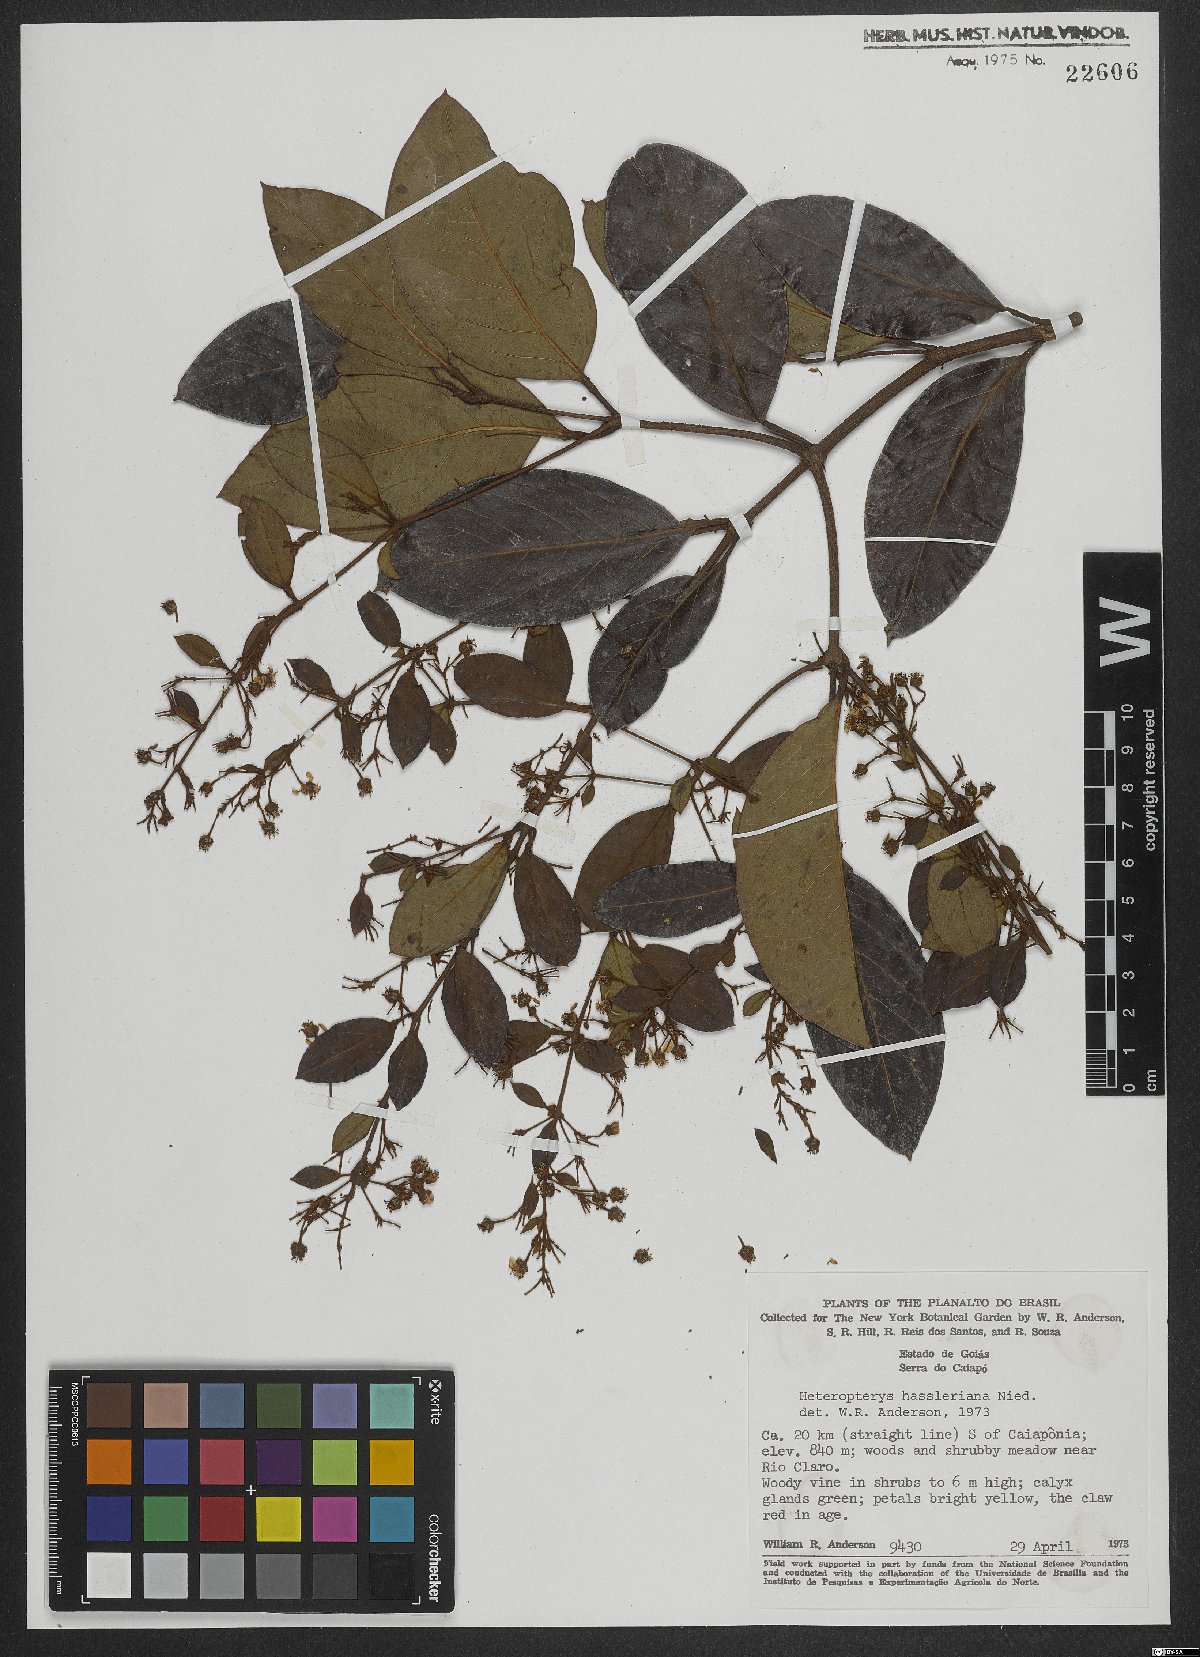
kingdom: Plantae
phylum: Tracheophyta
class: Magnoliopsida
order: Malpighiales
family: Malpighiaceae
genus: Heteropterys
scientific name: Heteropterys cochleosperma
